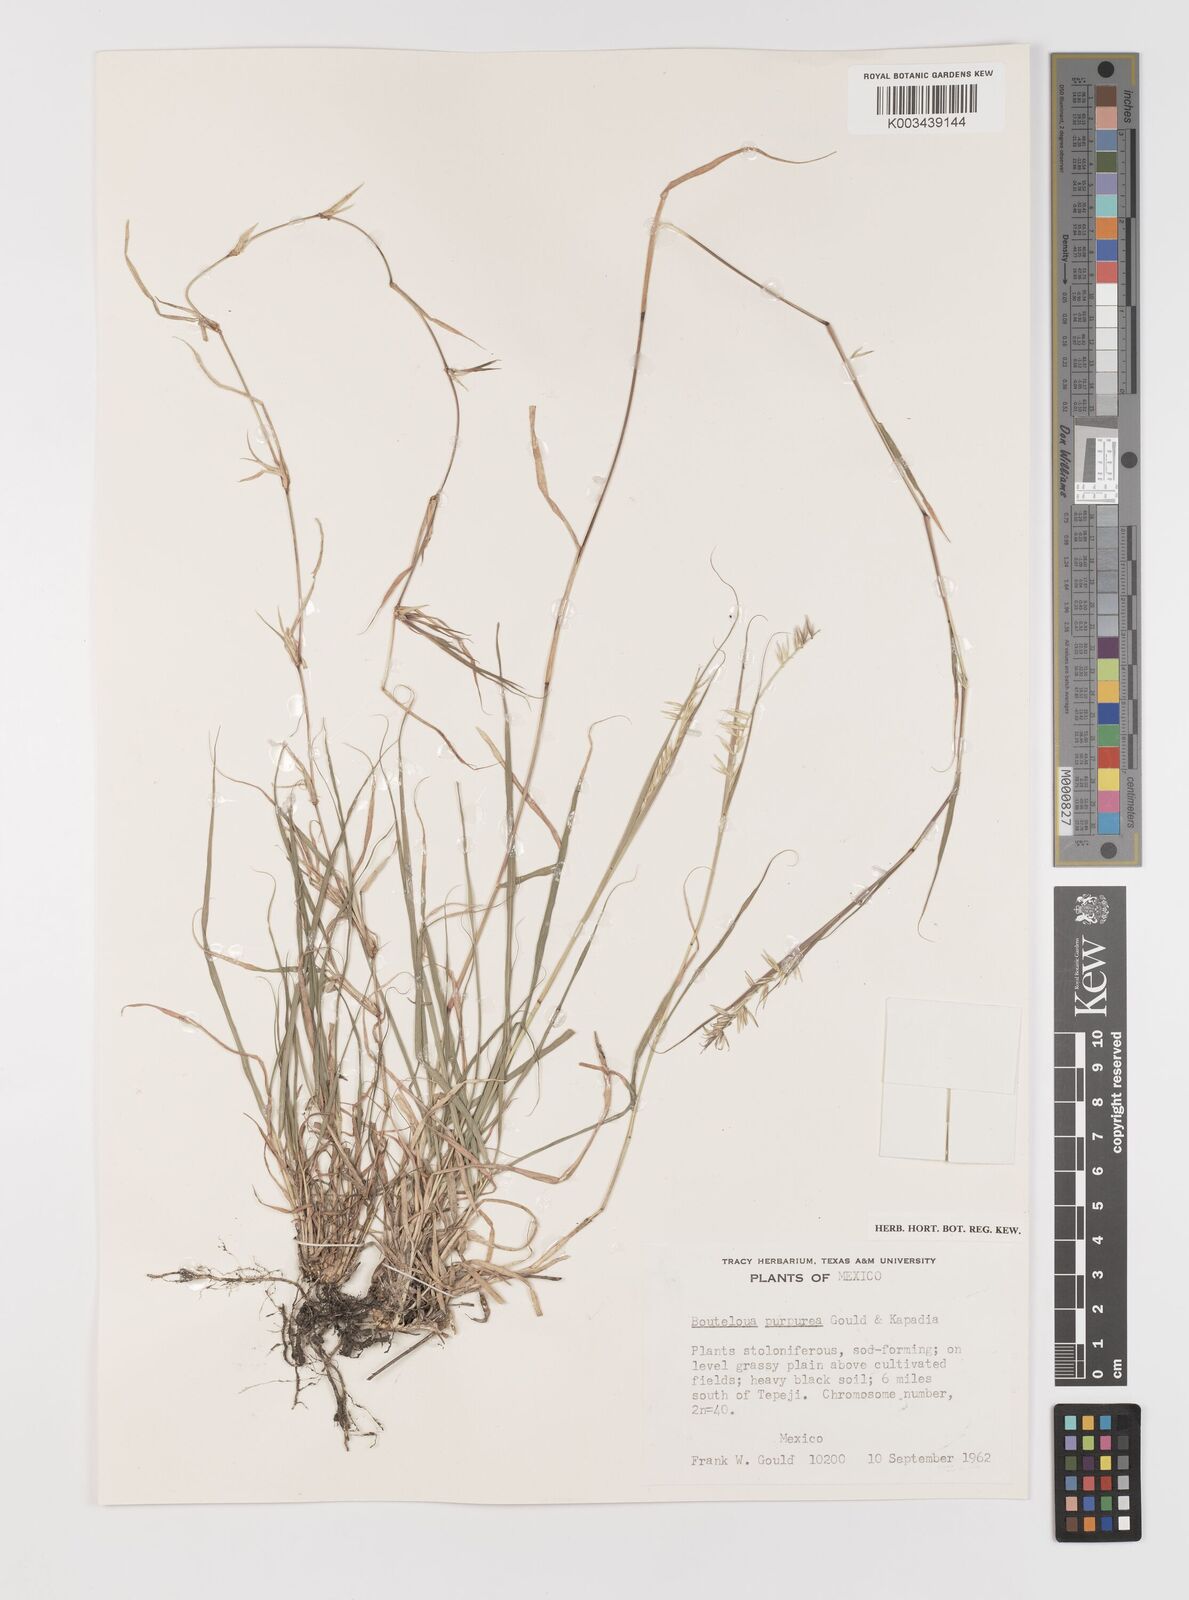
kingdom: Plantae
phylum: Tracheophyta
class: Liliopsida
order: Poales
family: Poaceae
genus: Bouteloua
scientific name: Bouteloua purpurea
